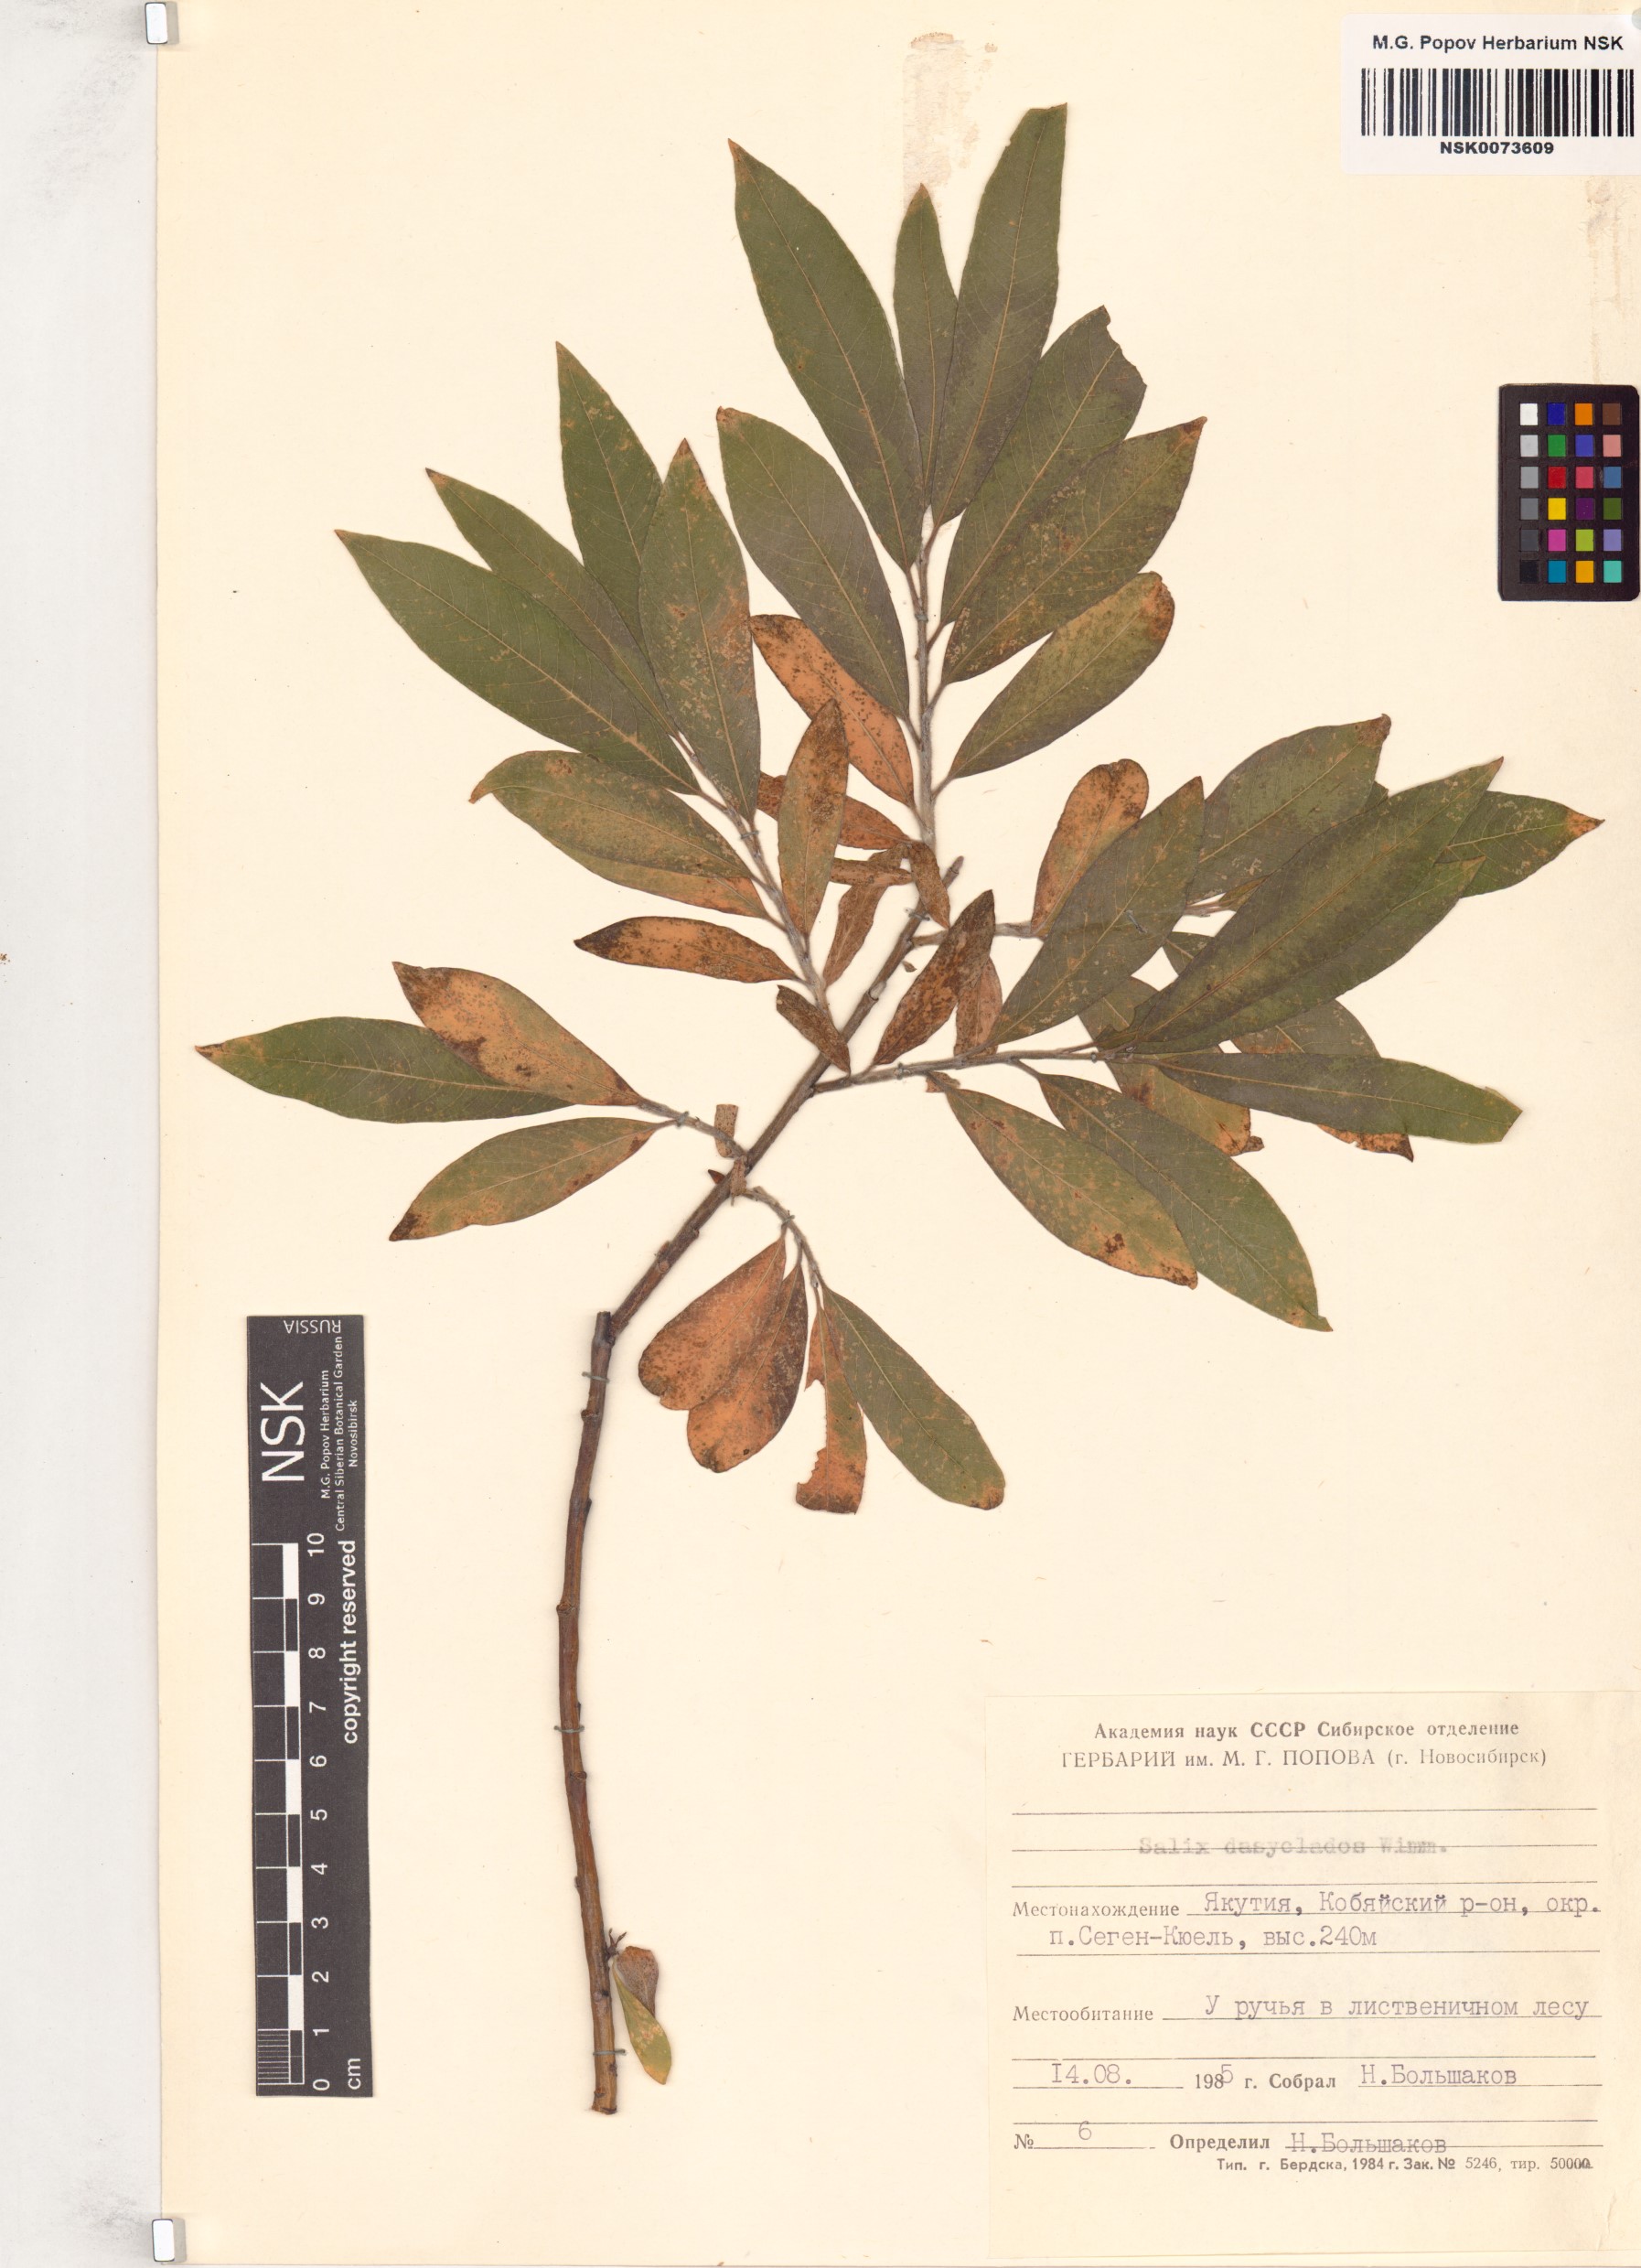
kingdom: Plantae
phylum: Tracheophyta
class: Magnoliopsida
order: Malpighiales
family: Salicaceae
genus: Salix
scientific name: Salix gmelinii
